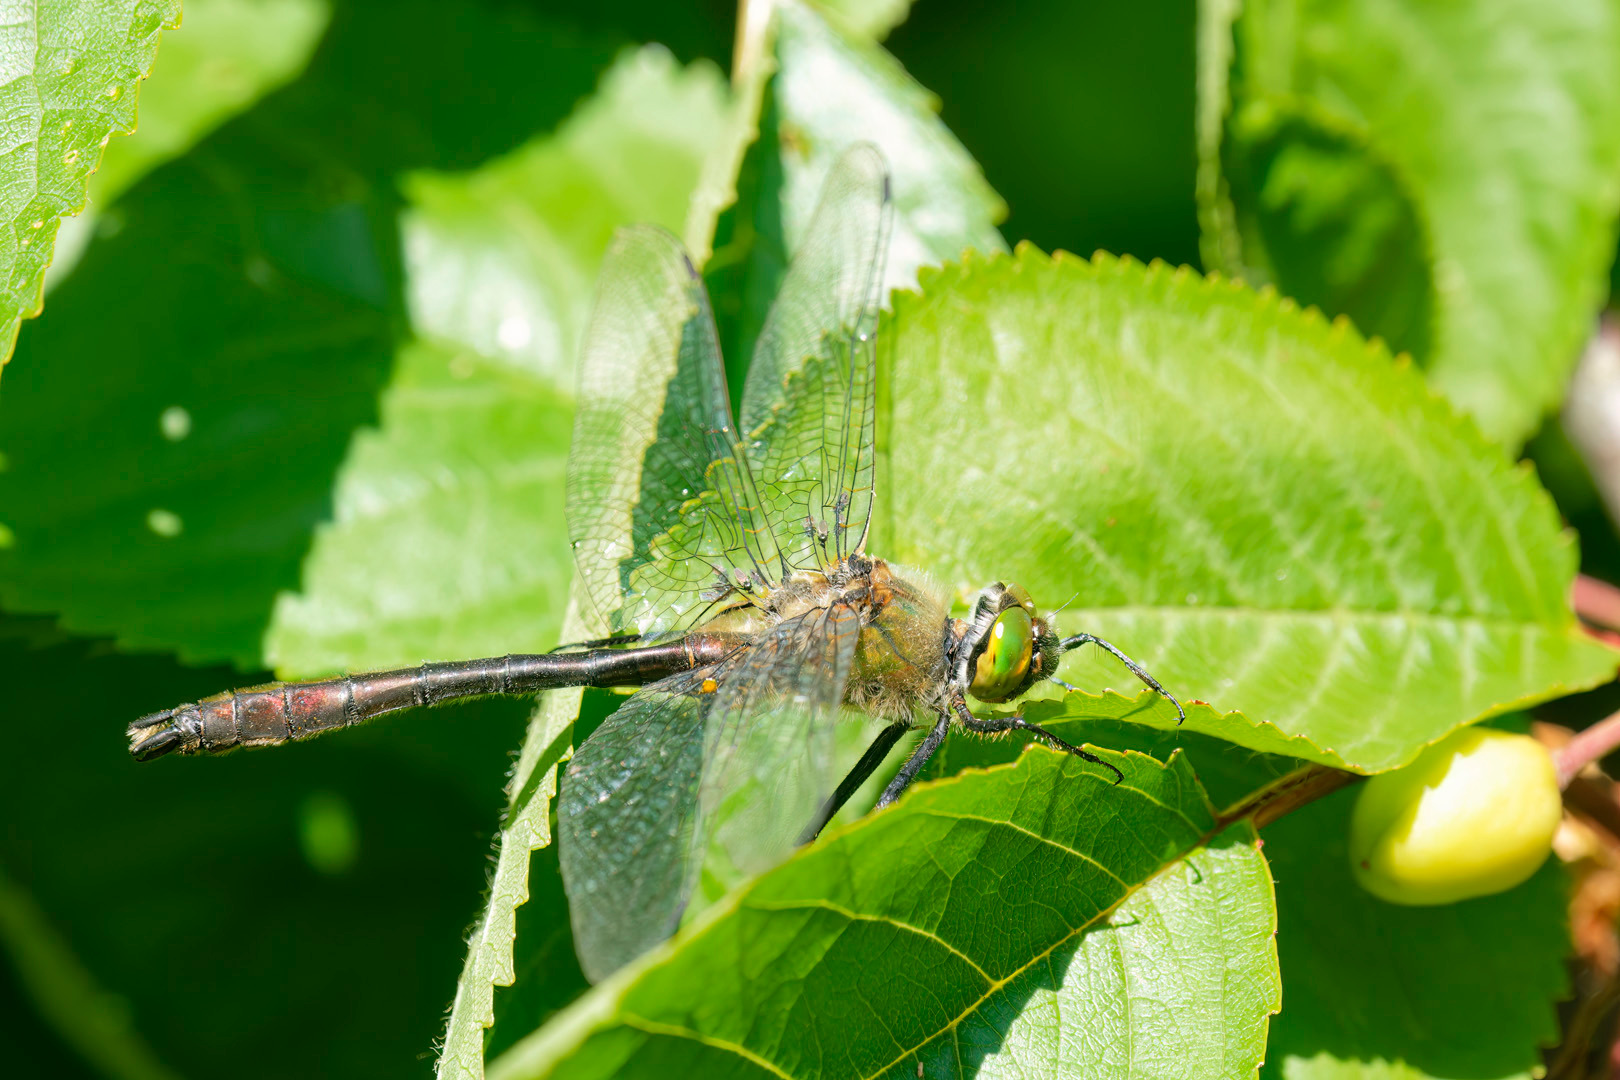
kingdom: Animalia
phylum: Arthropoda
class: Insecta
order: Odonata
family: Corduliidae
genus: Cordulia
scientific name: Cordulia aenea
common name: Grøn smaragdlibel
